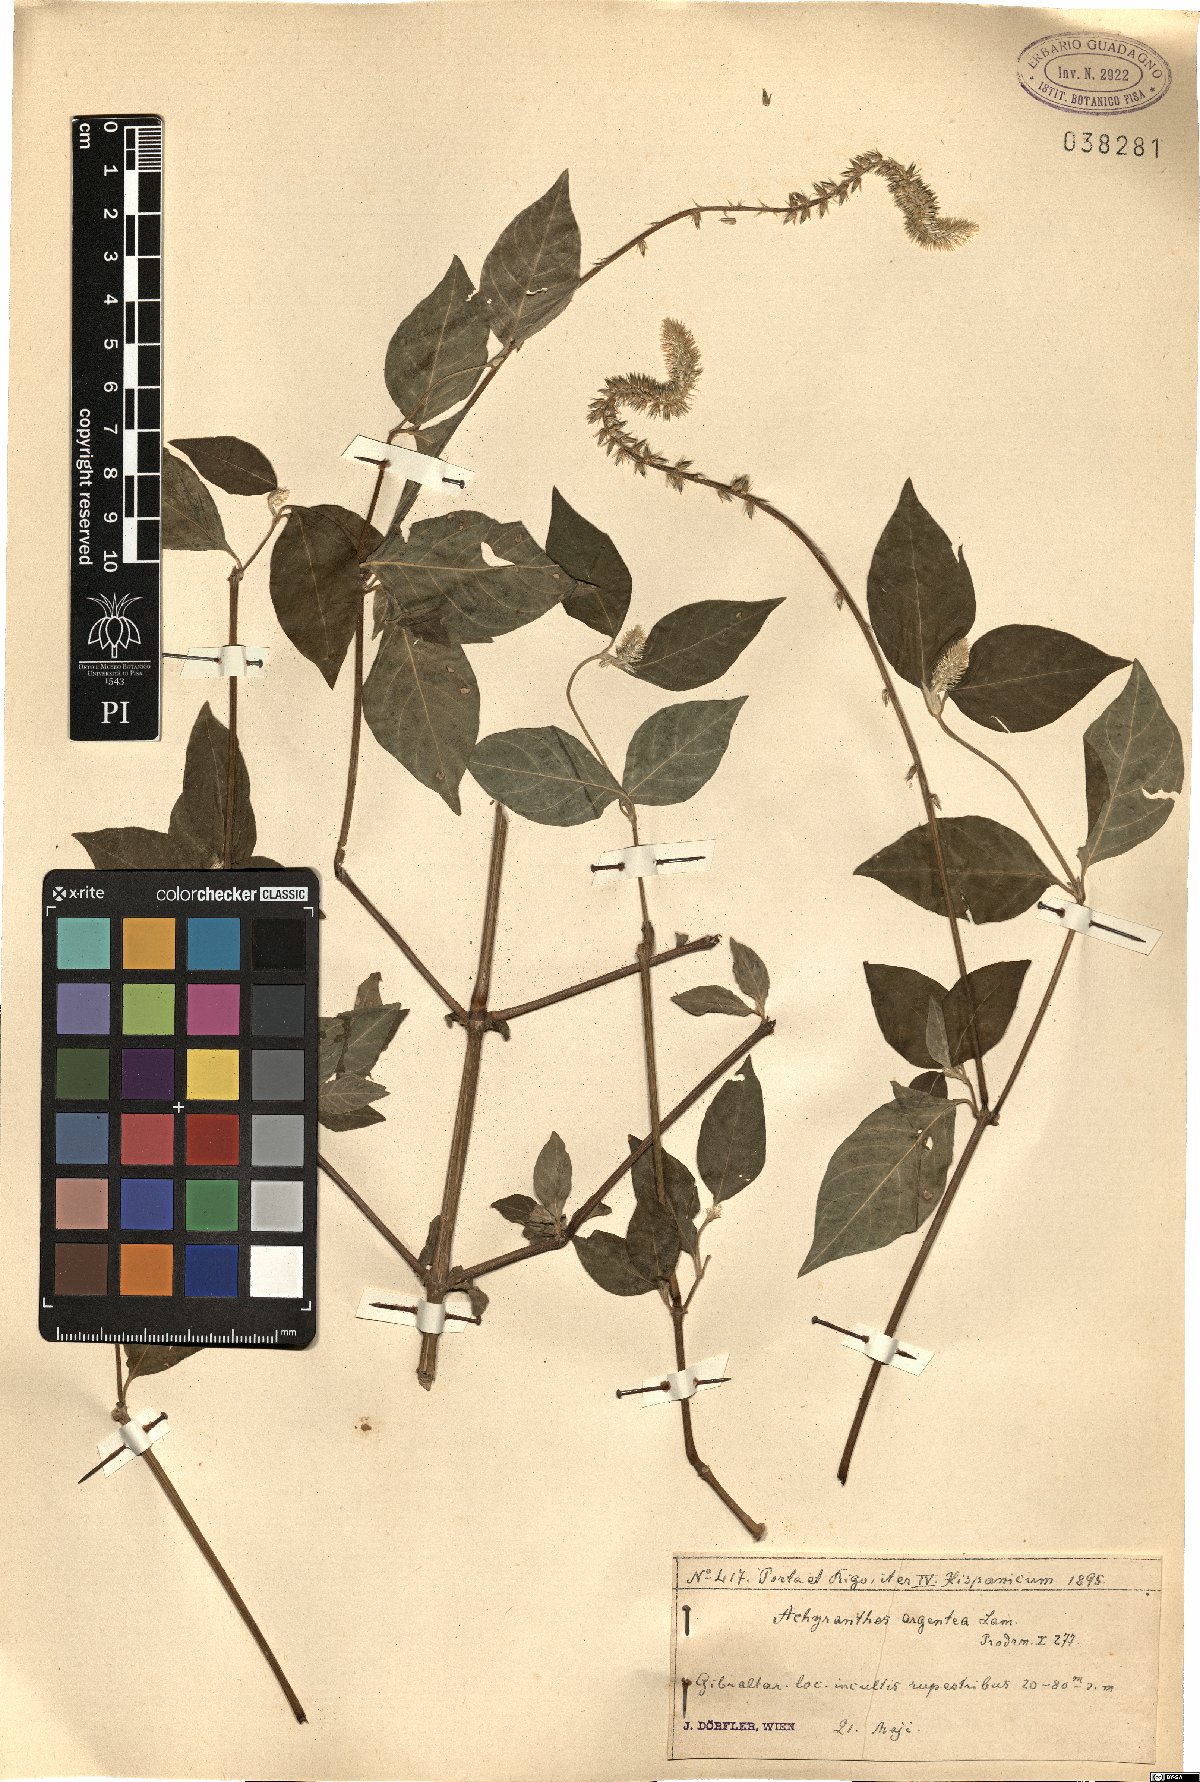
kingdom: Plantae
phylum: Tracheophyta
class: Magnoliopsida
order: Caryophyllales
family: Amaranthaceae
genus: Achyranthes
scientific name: Achyranthes sicula
